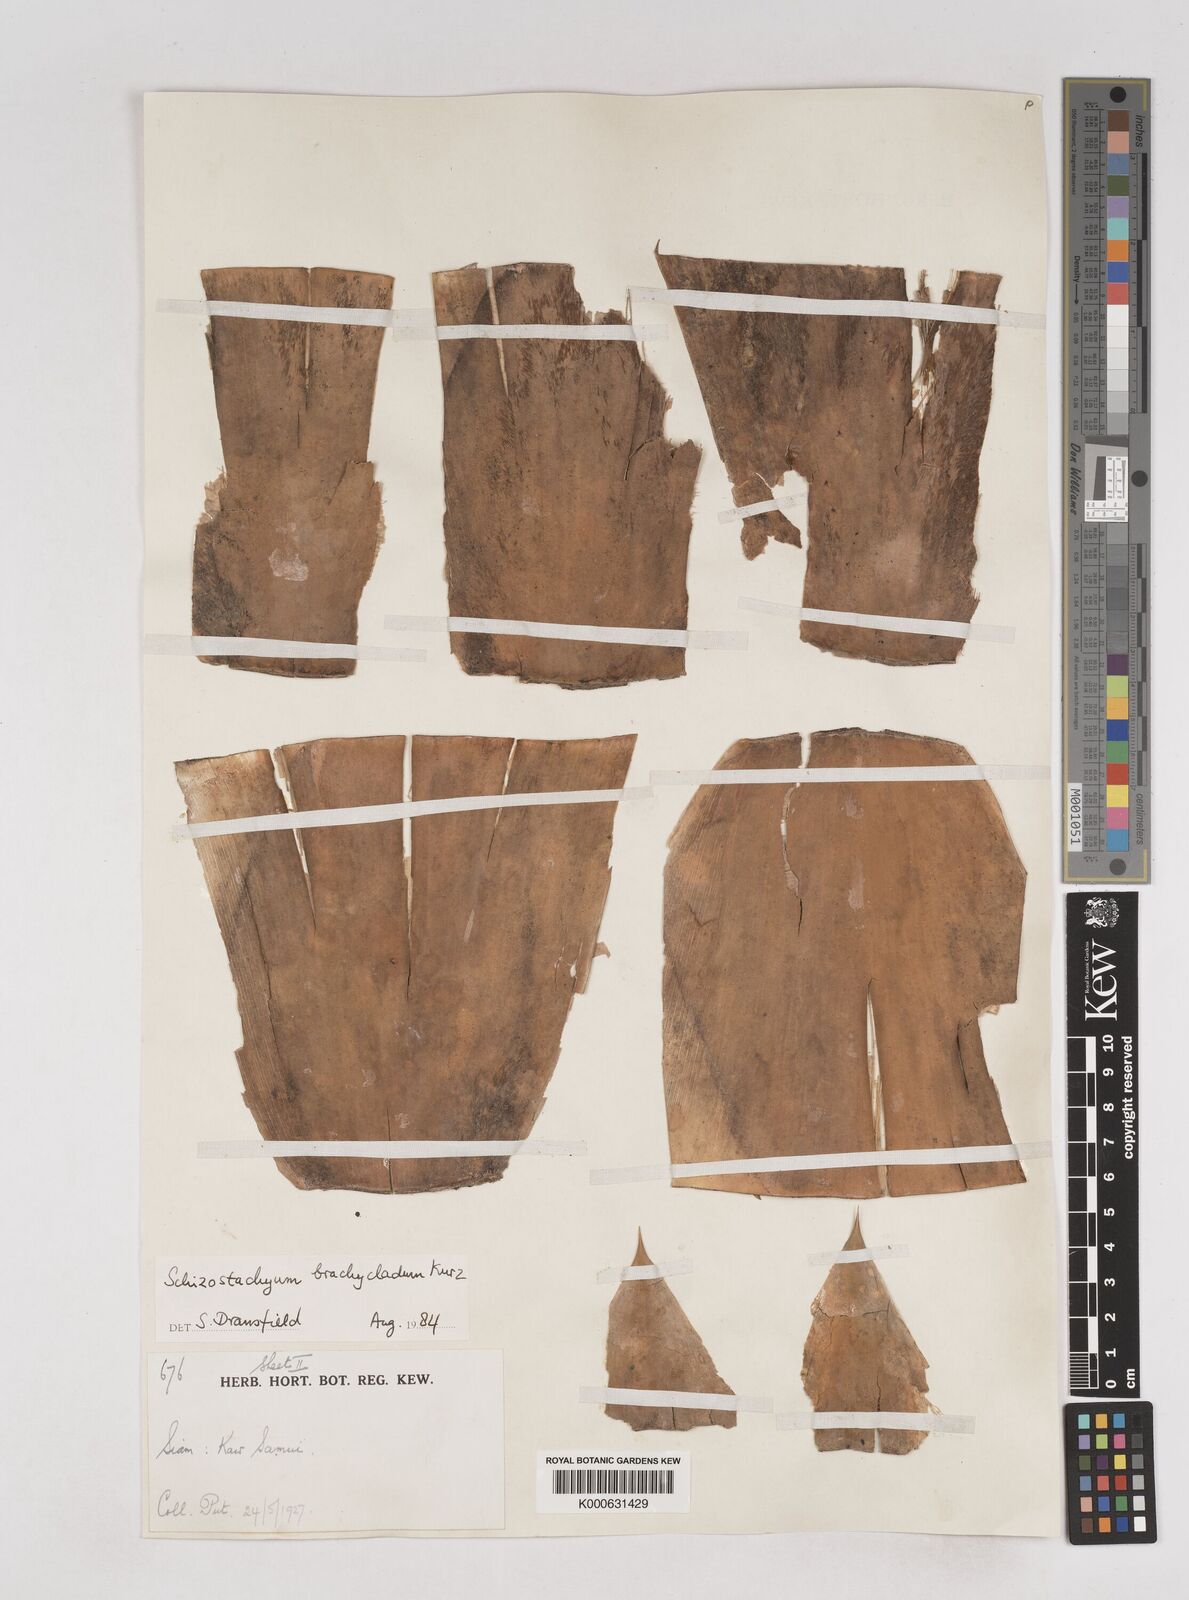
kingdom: Plantae
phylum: Tracheophyta
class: Liliopsida
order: Poales
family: Poaceae
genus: Schizostachyum
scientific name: Schizostachyum brachycladum
